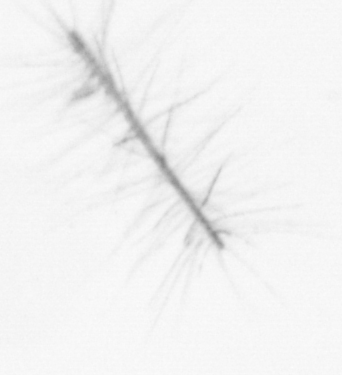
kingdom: Chromista
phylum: Ochrophyta
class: Bacillariophyceae
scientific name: Bacillariophyceae
